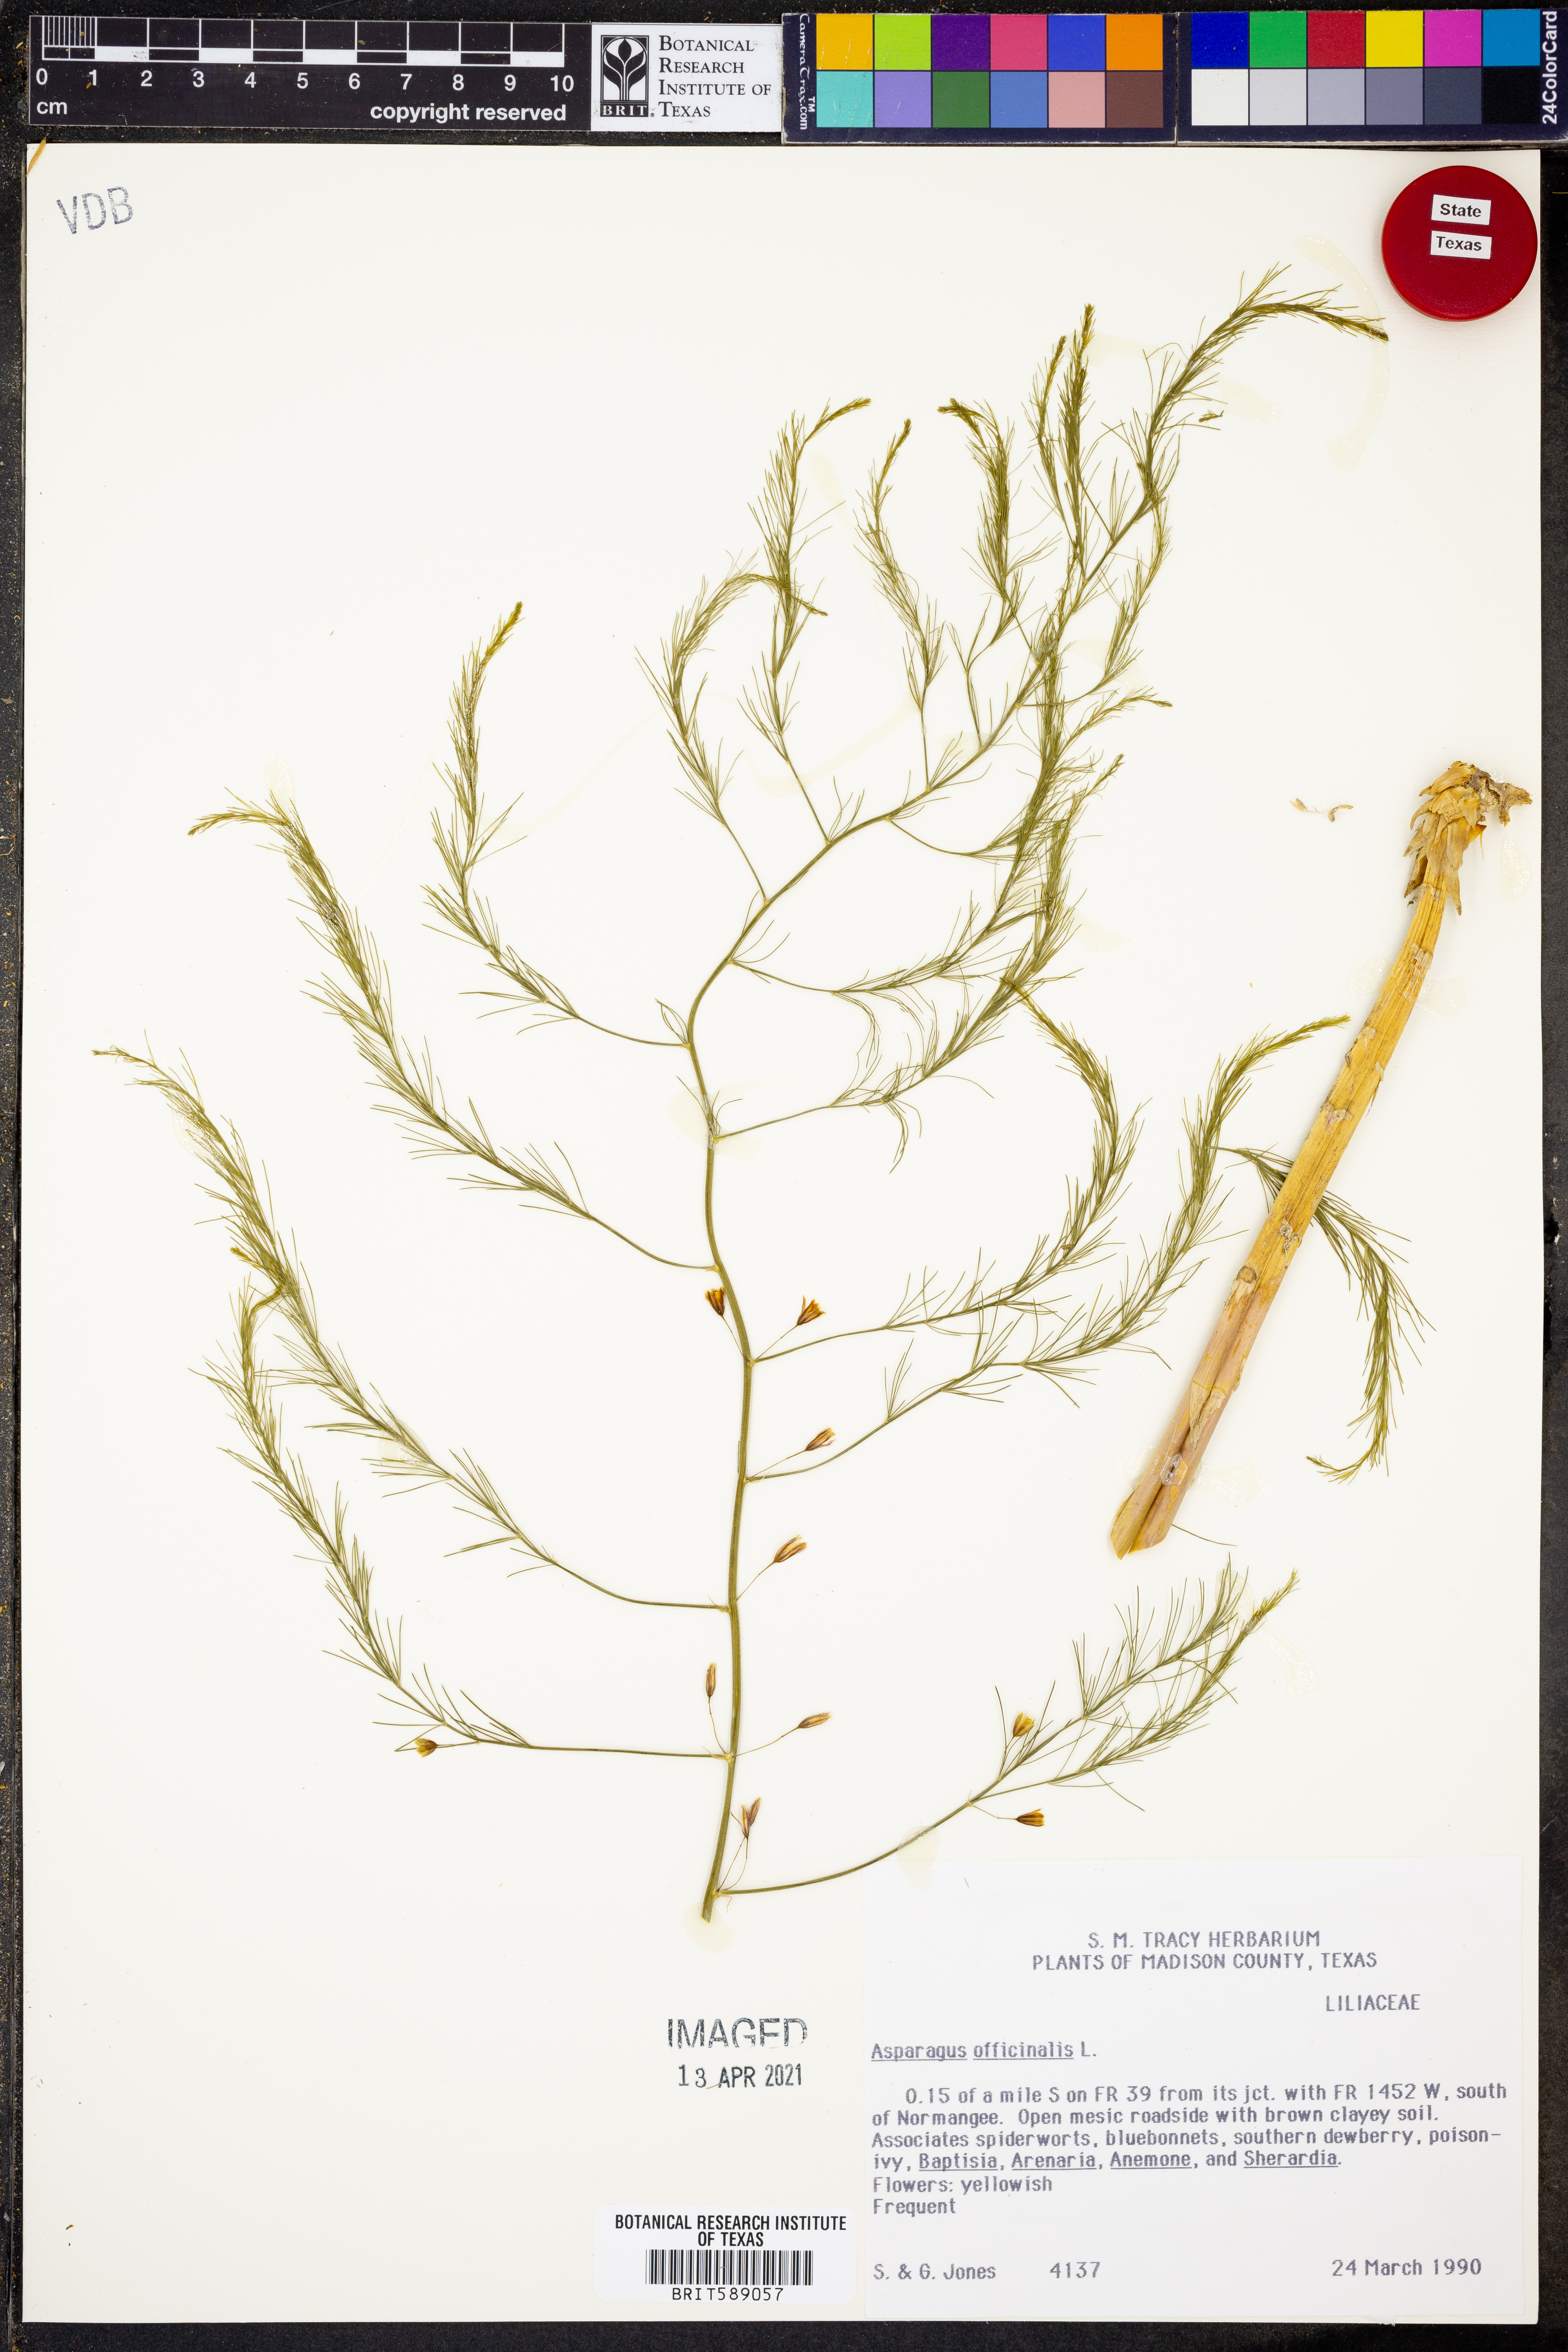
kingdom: Plantae
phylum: Tracheophyta
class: Liliopsida
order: Asparagales
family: Asparagaceae
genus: Asparagus
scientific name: Asparagus officinalis
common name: Garden asparagus
